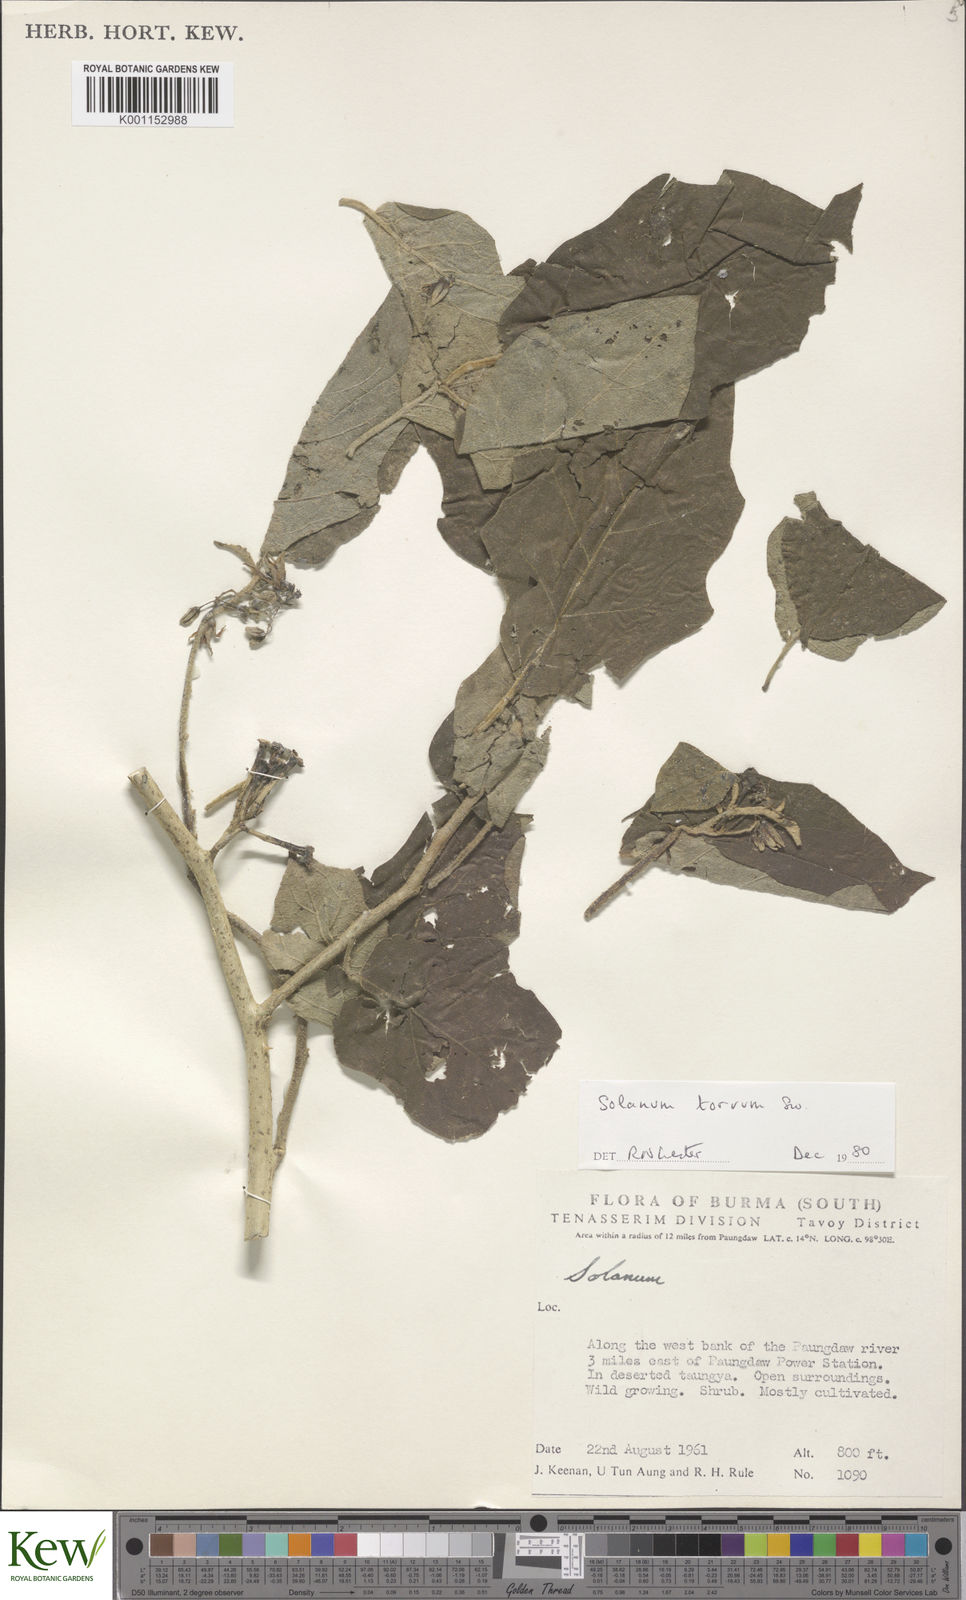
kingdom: Plantae
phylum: Tracheophyta
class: Magnoliopsida
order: Solanales
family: Solanaceae
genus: Solanum
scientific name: Solanum torvum
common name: Turkey berry
